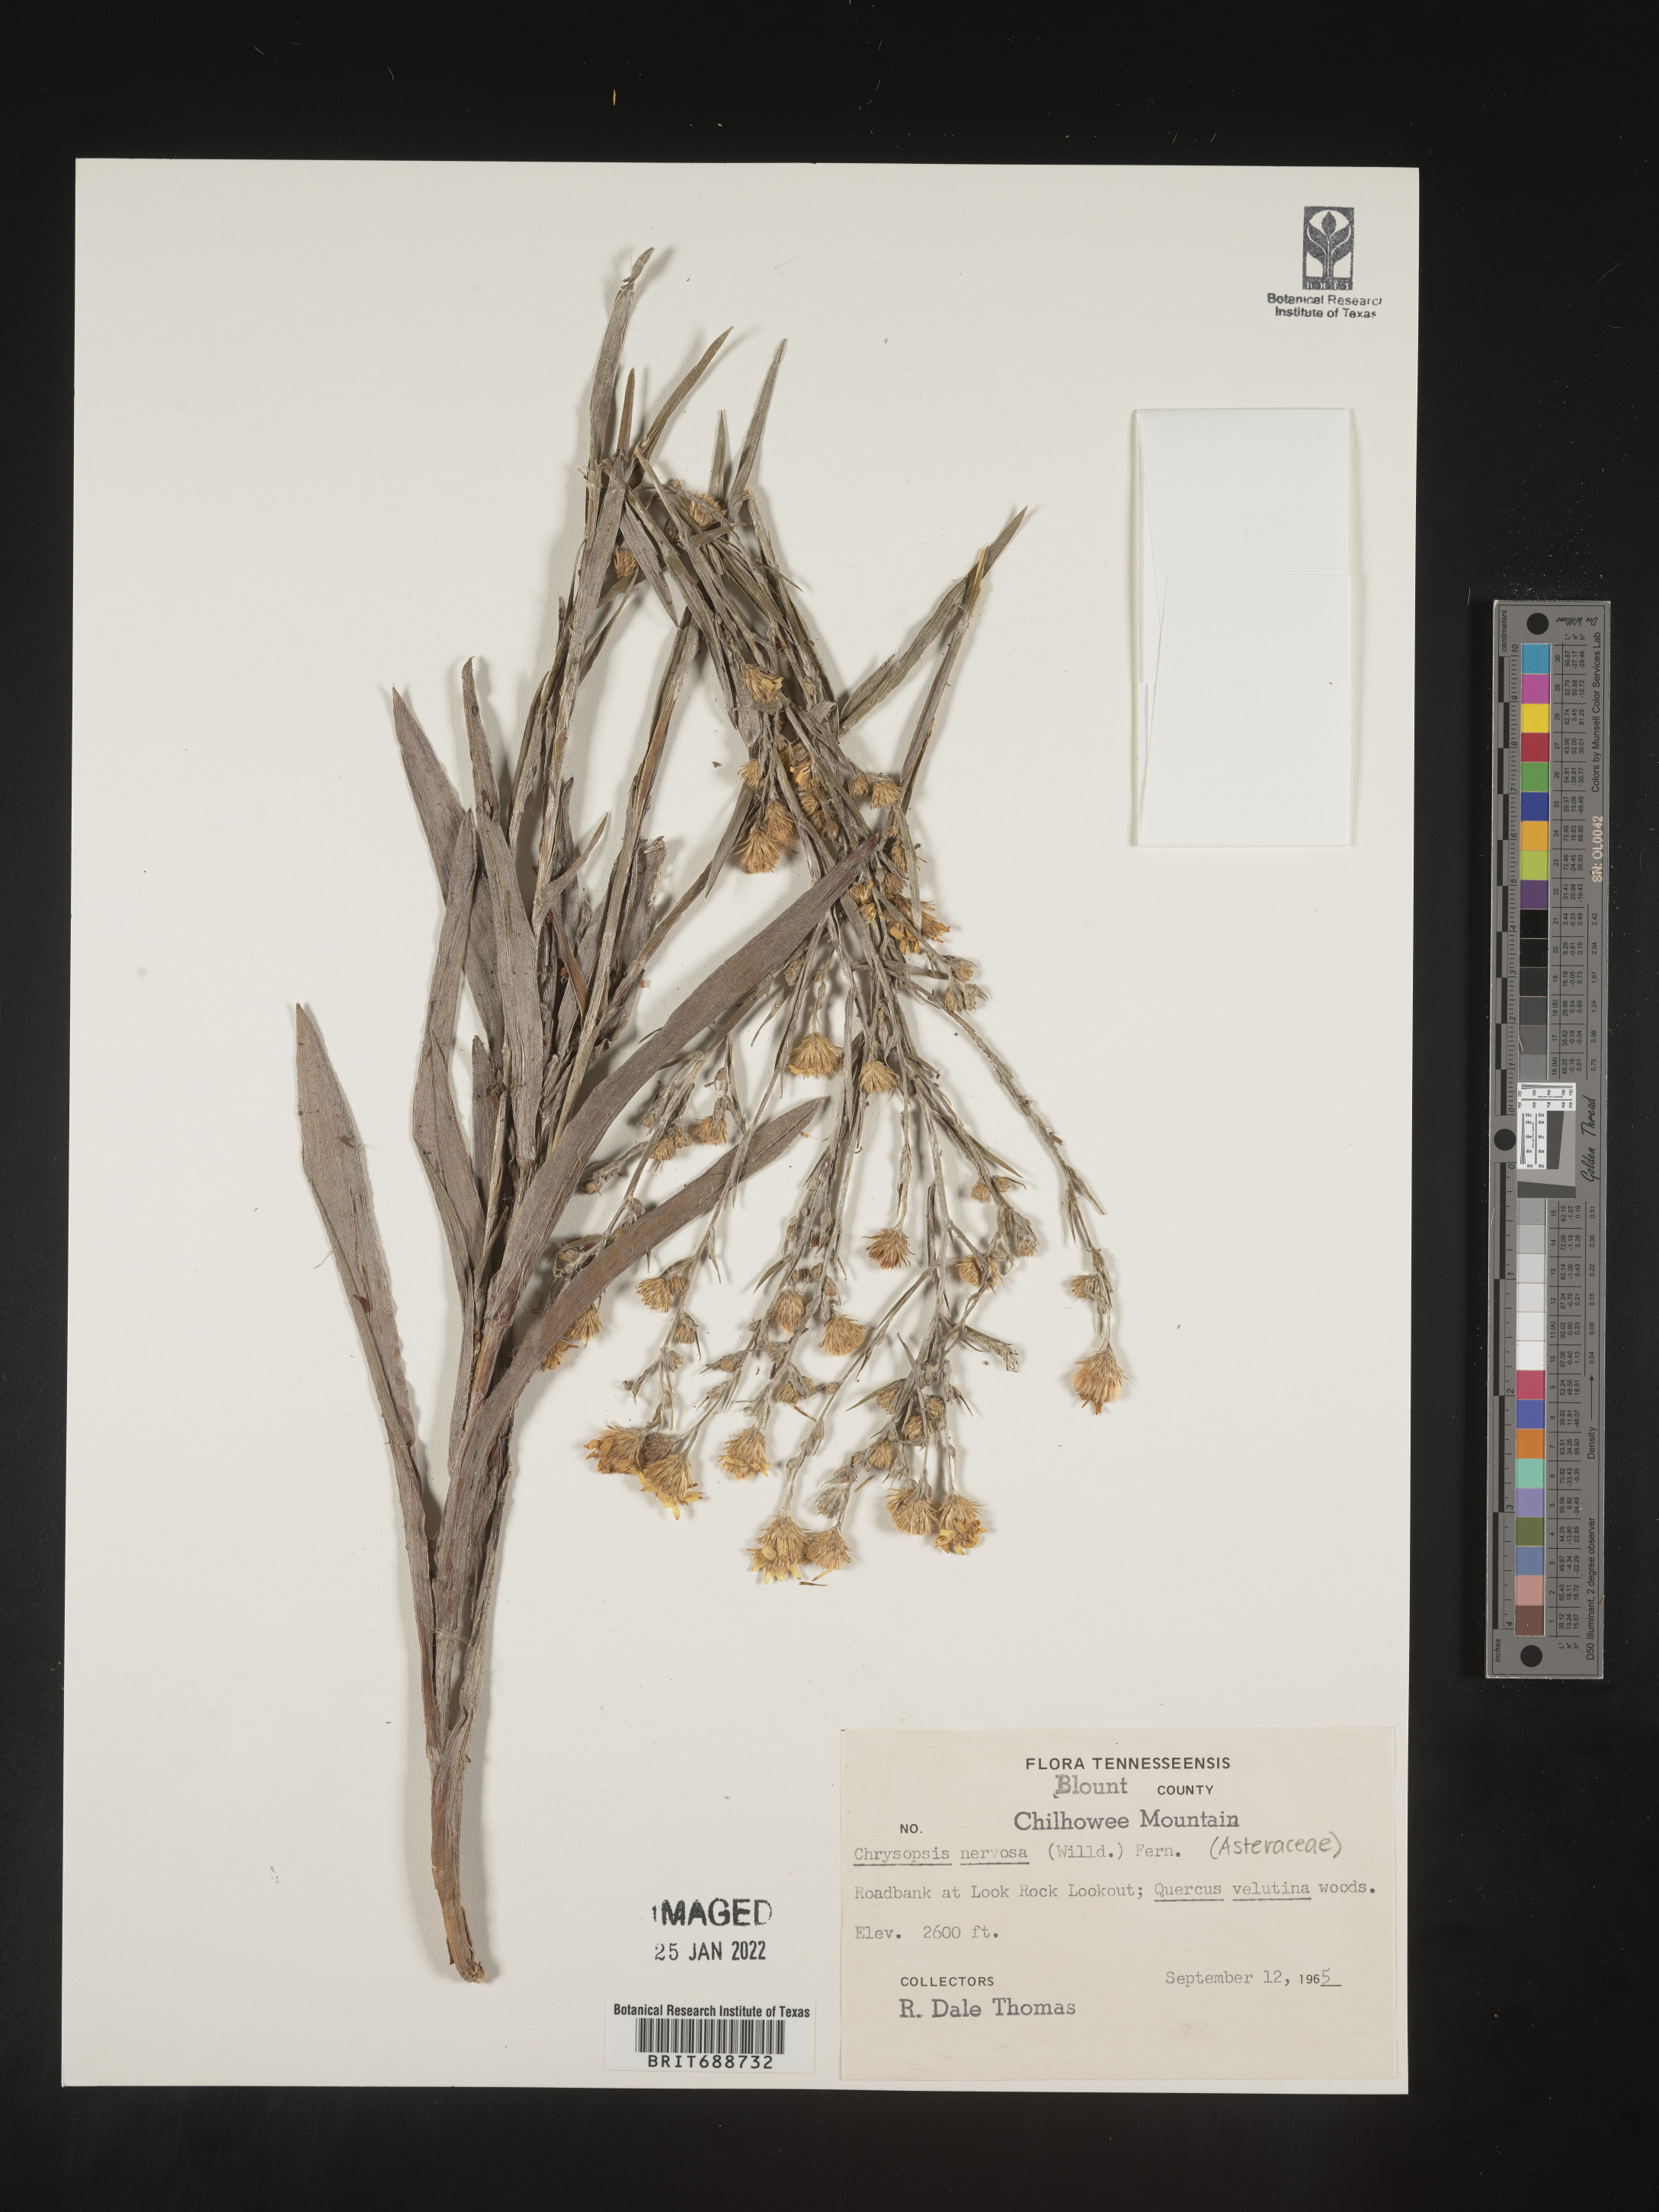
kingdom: Plantae
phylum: Tracheophyta
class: Magnoliopsida
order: Asterales
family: Asteraceae
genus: Pityopsis
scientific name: Pityopsis graminifolia
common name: Grass-leaf golden-aster
